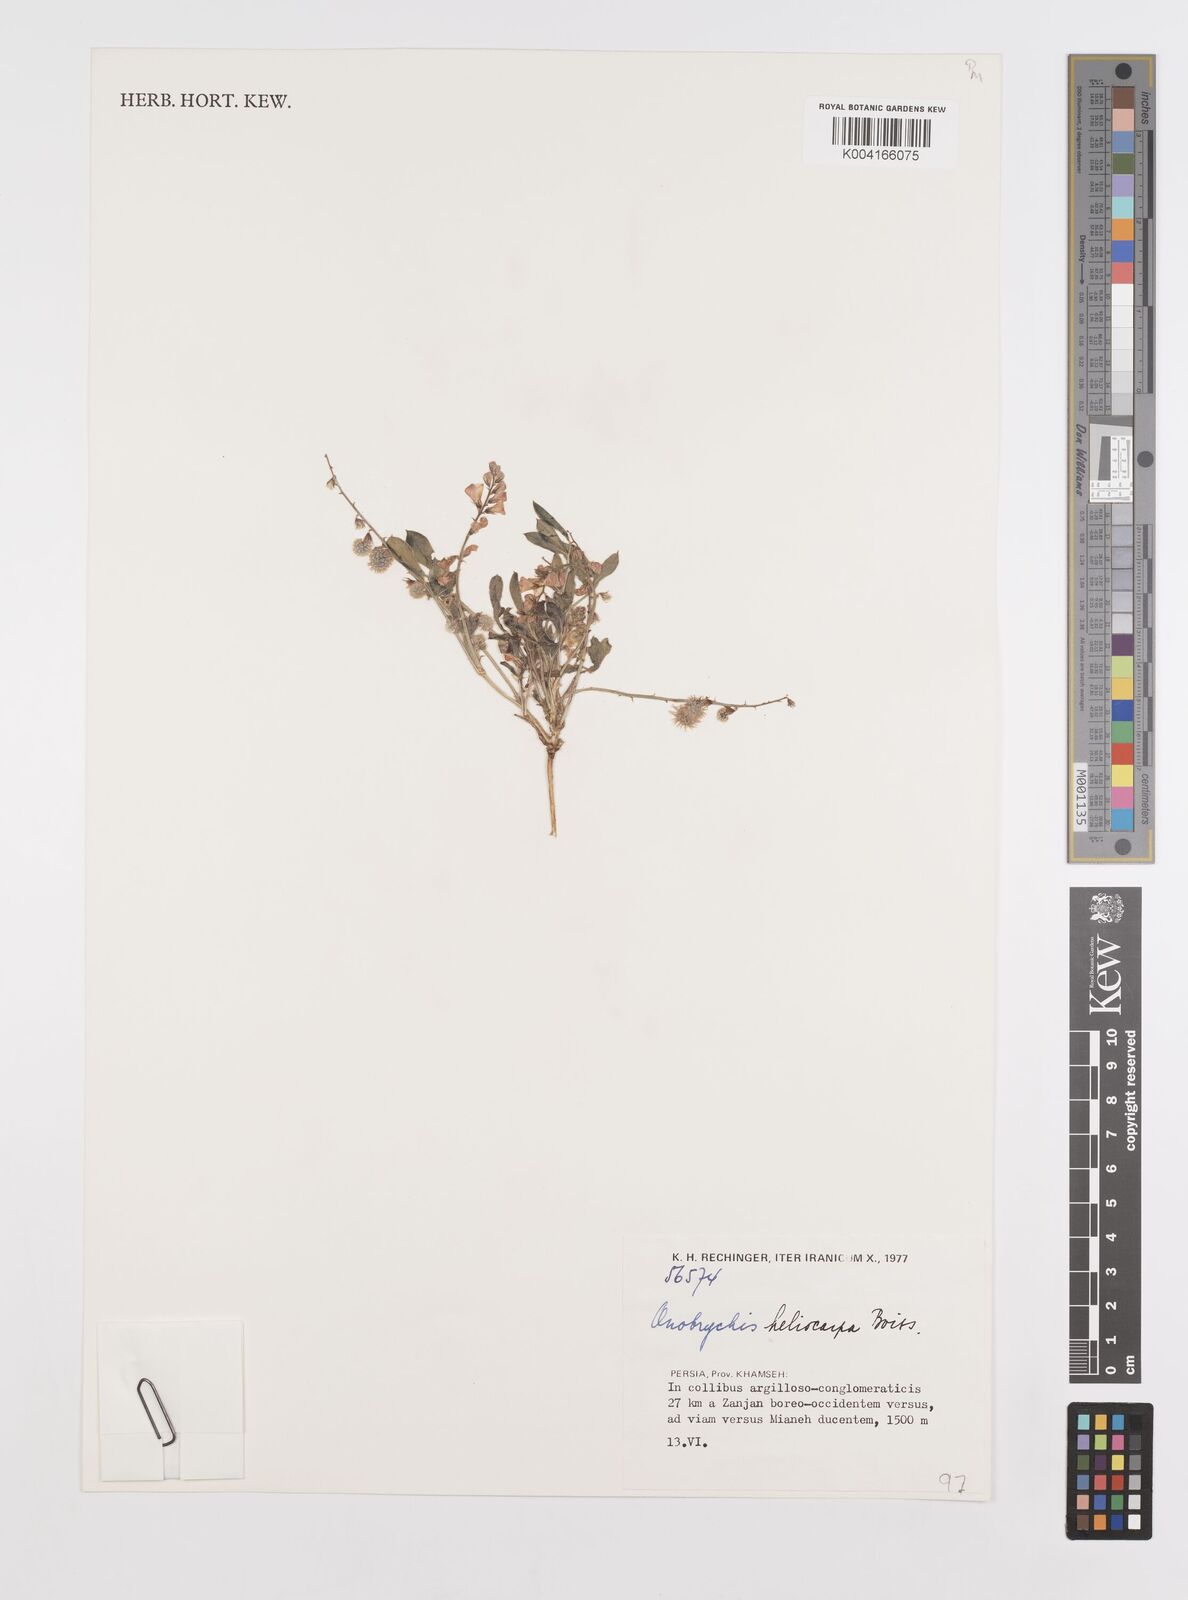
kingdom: Plantae
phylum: Tracheophyta
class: Magnoliopsida
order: Fabales
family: Fabaceae
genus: Onobrychis
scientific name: Onobrychis subacaulis
